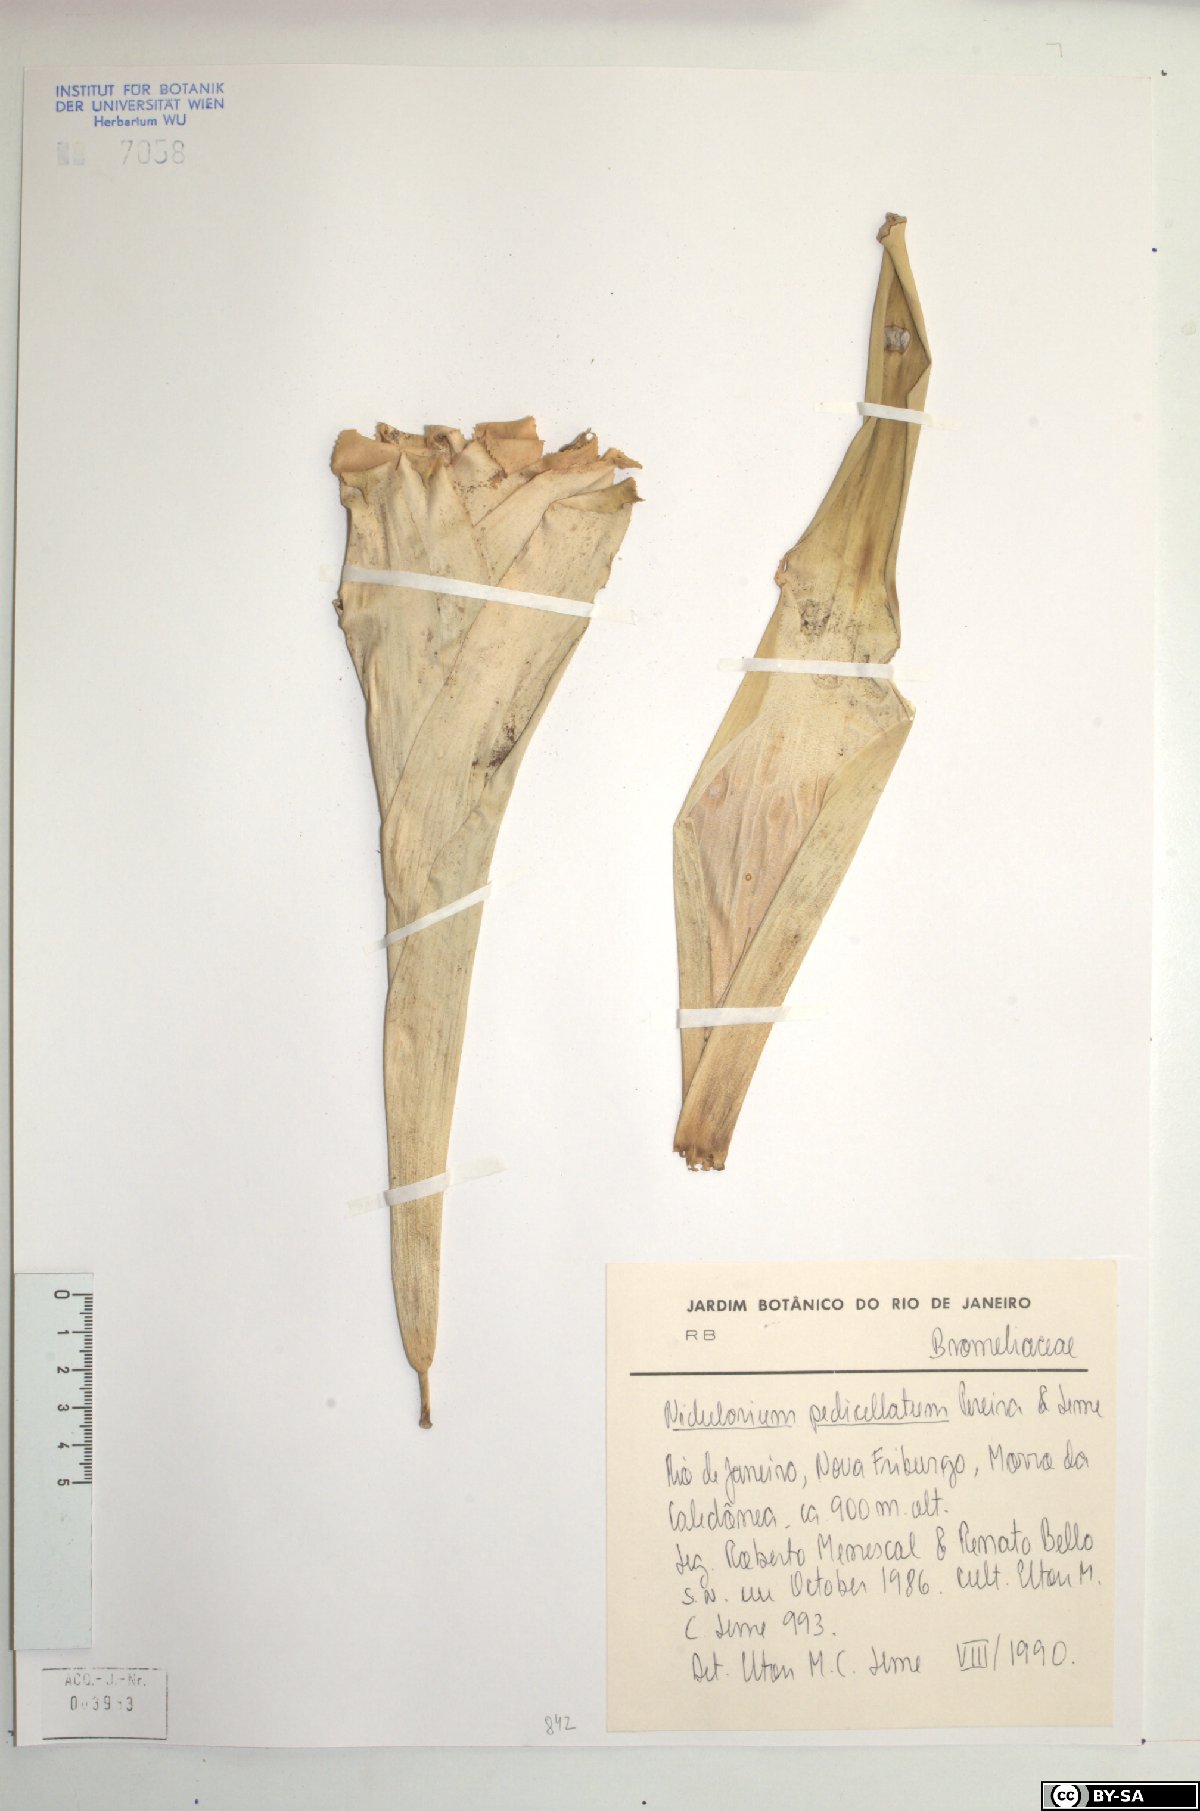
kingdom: Plantae
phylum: Tracheophyta
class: Liliopsida
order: Poales
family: Bromeliaceae
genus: Nidularium
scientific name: Nidularium antoineanum
